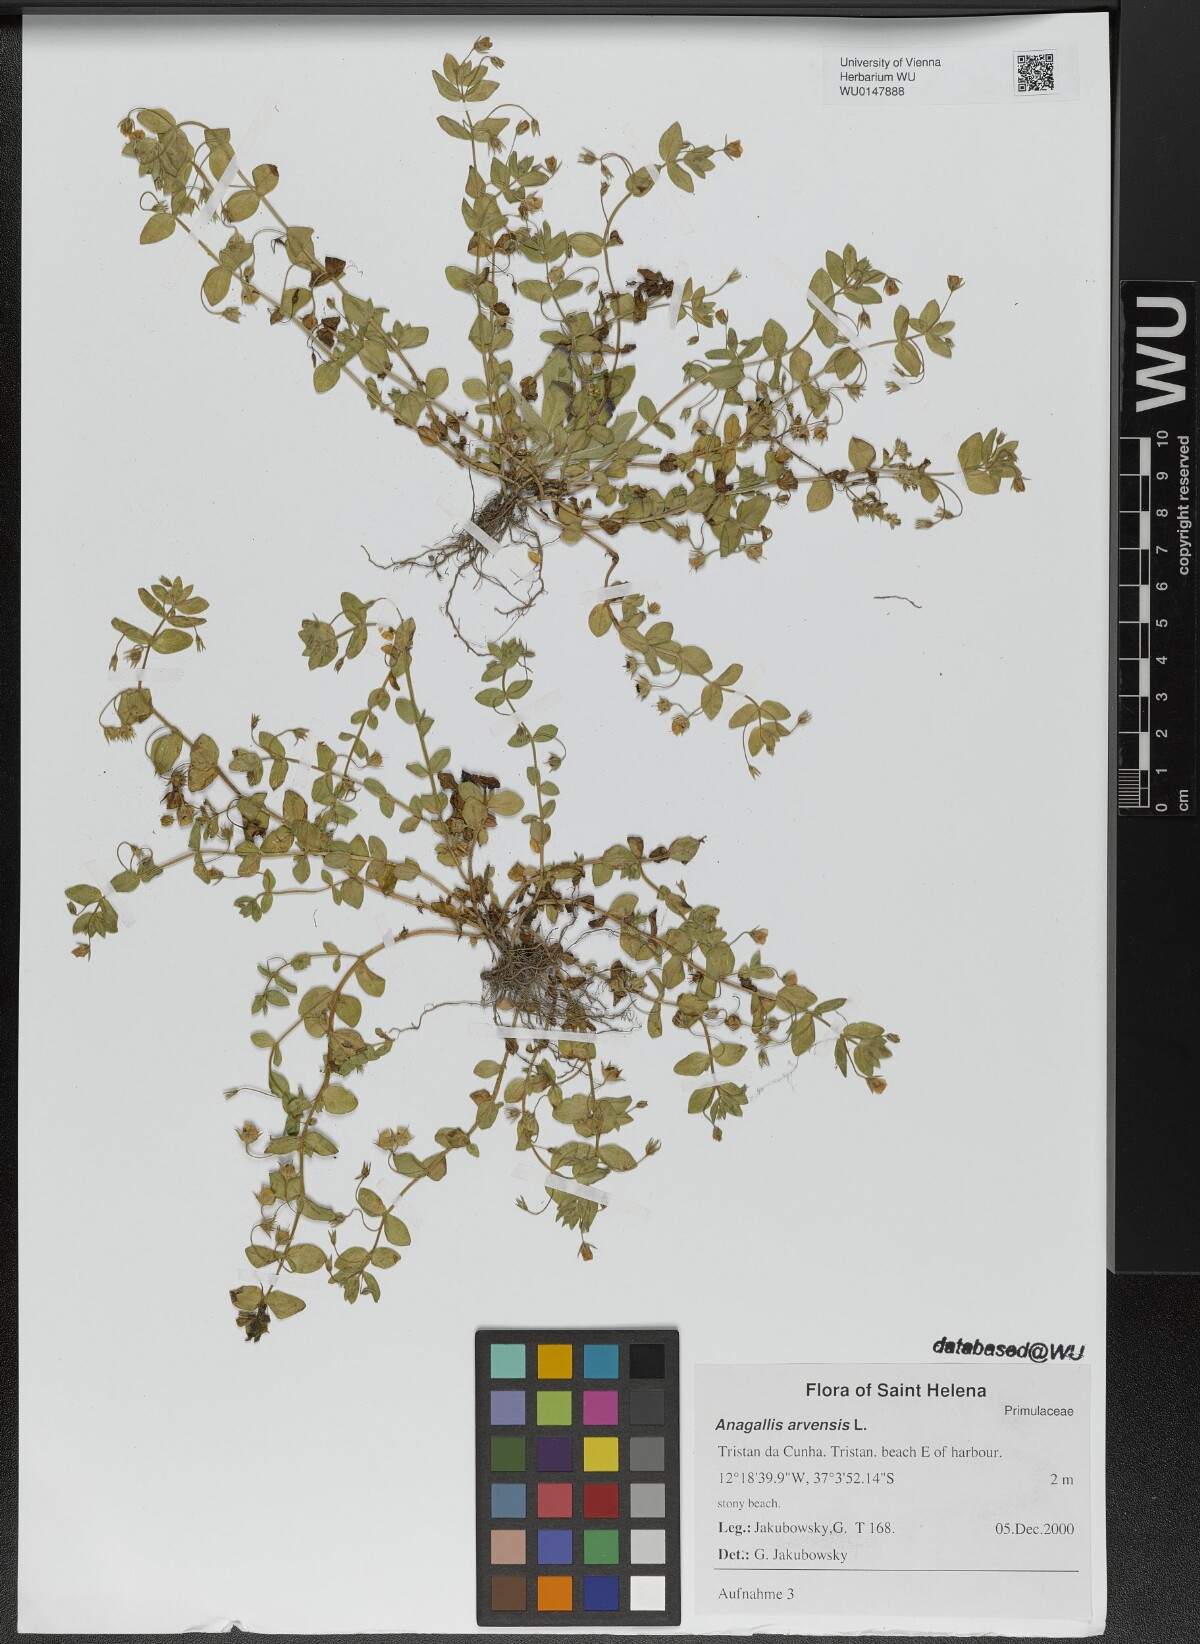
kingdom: Plantae
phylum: Tracheophyta
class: Magnoliopsida
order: Ericales
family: Primulaceae
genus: Lysimachia
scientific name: Lysimachia arvensis
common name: Scarlet pimpernel
